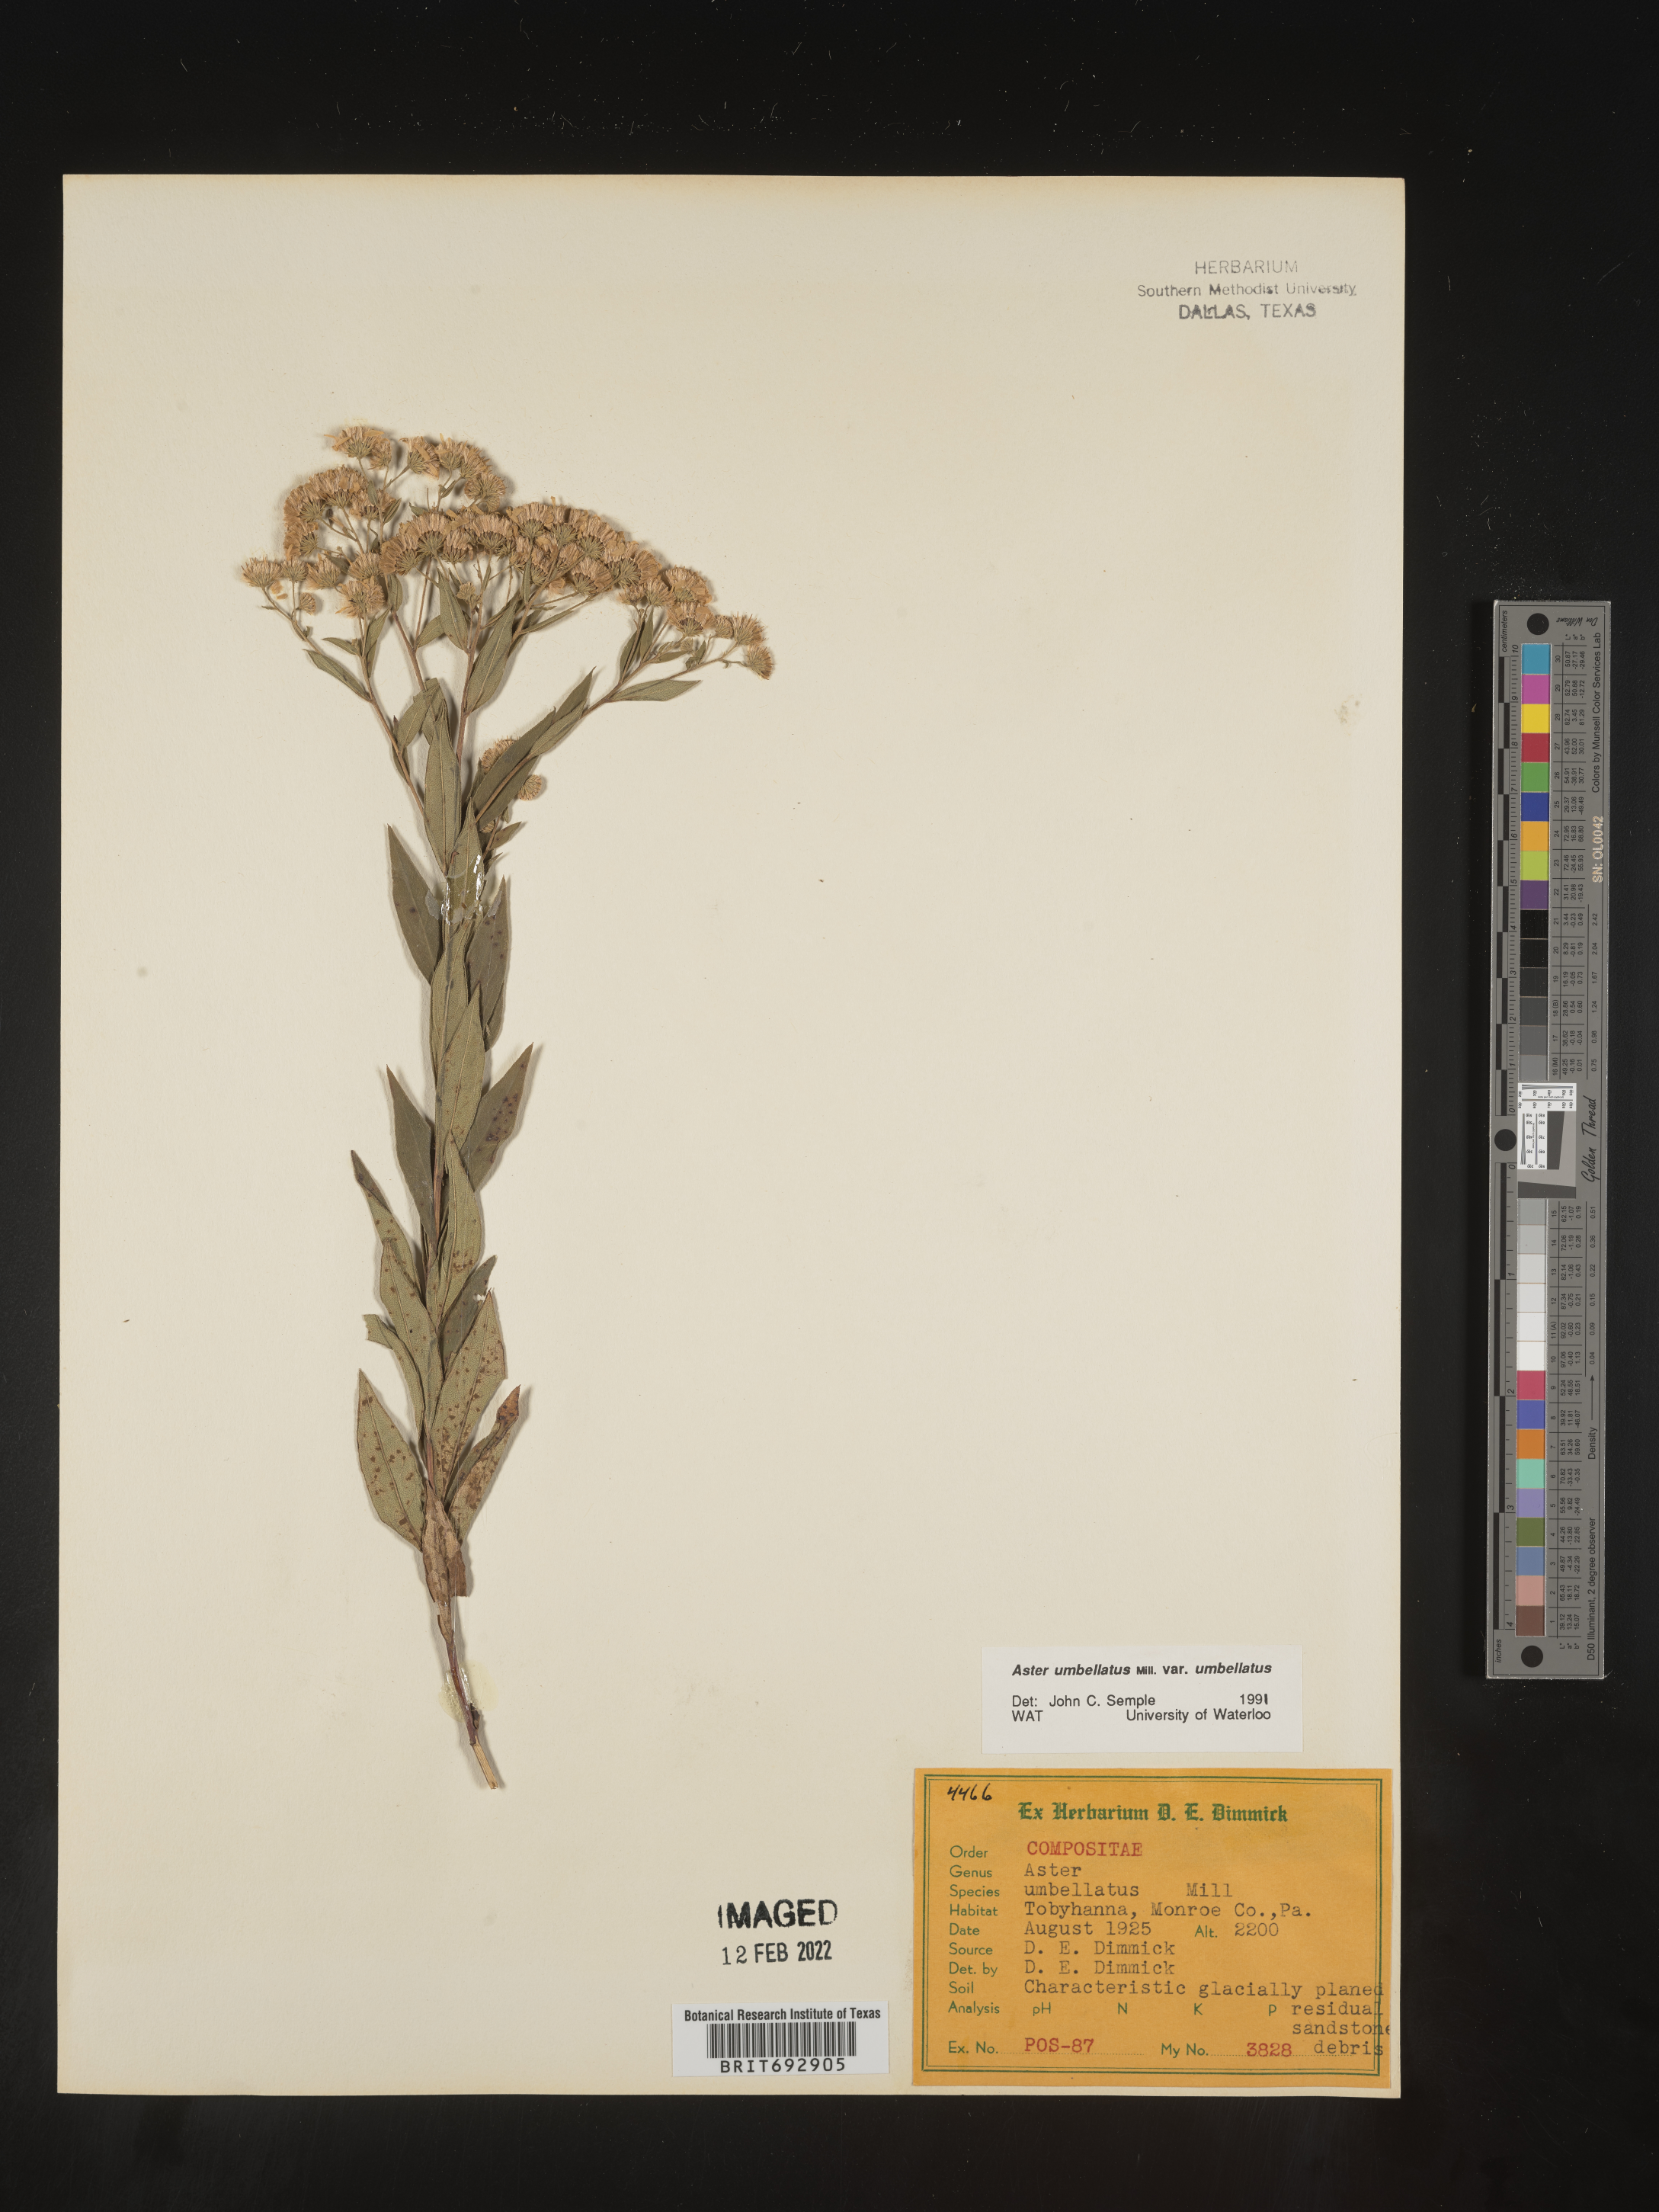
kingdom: Plantae
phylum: Tracheophyta
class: Magnoliopsida
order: Asterales
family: Asteraceae
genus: Doellingeria
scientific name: Doellingeria umbellata
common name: Flat-top white aster
